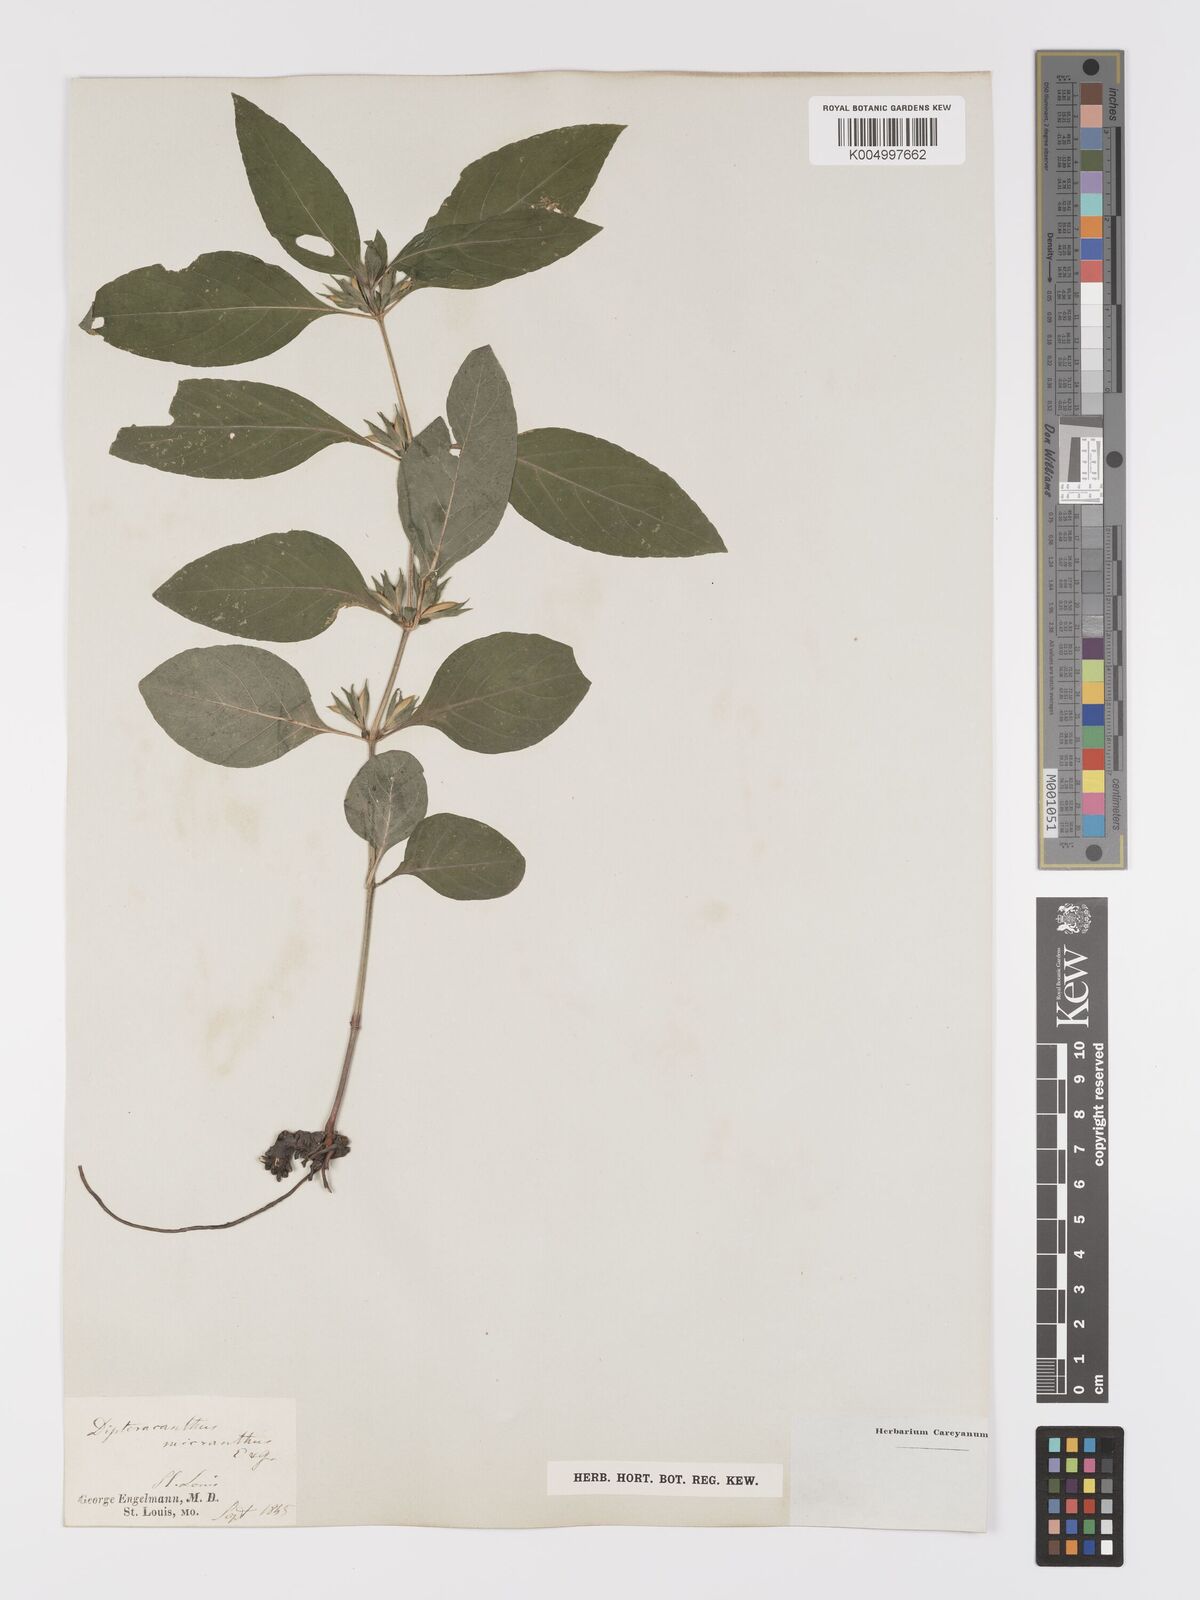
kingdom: Plantae
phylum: Tracheophyta
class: Magnoliopsida
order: Lamiales
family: Acanthaceae
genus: Ruellia
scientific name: Ruellia strepens
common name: Limestone wild petunia
